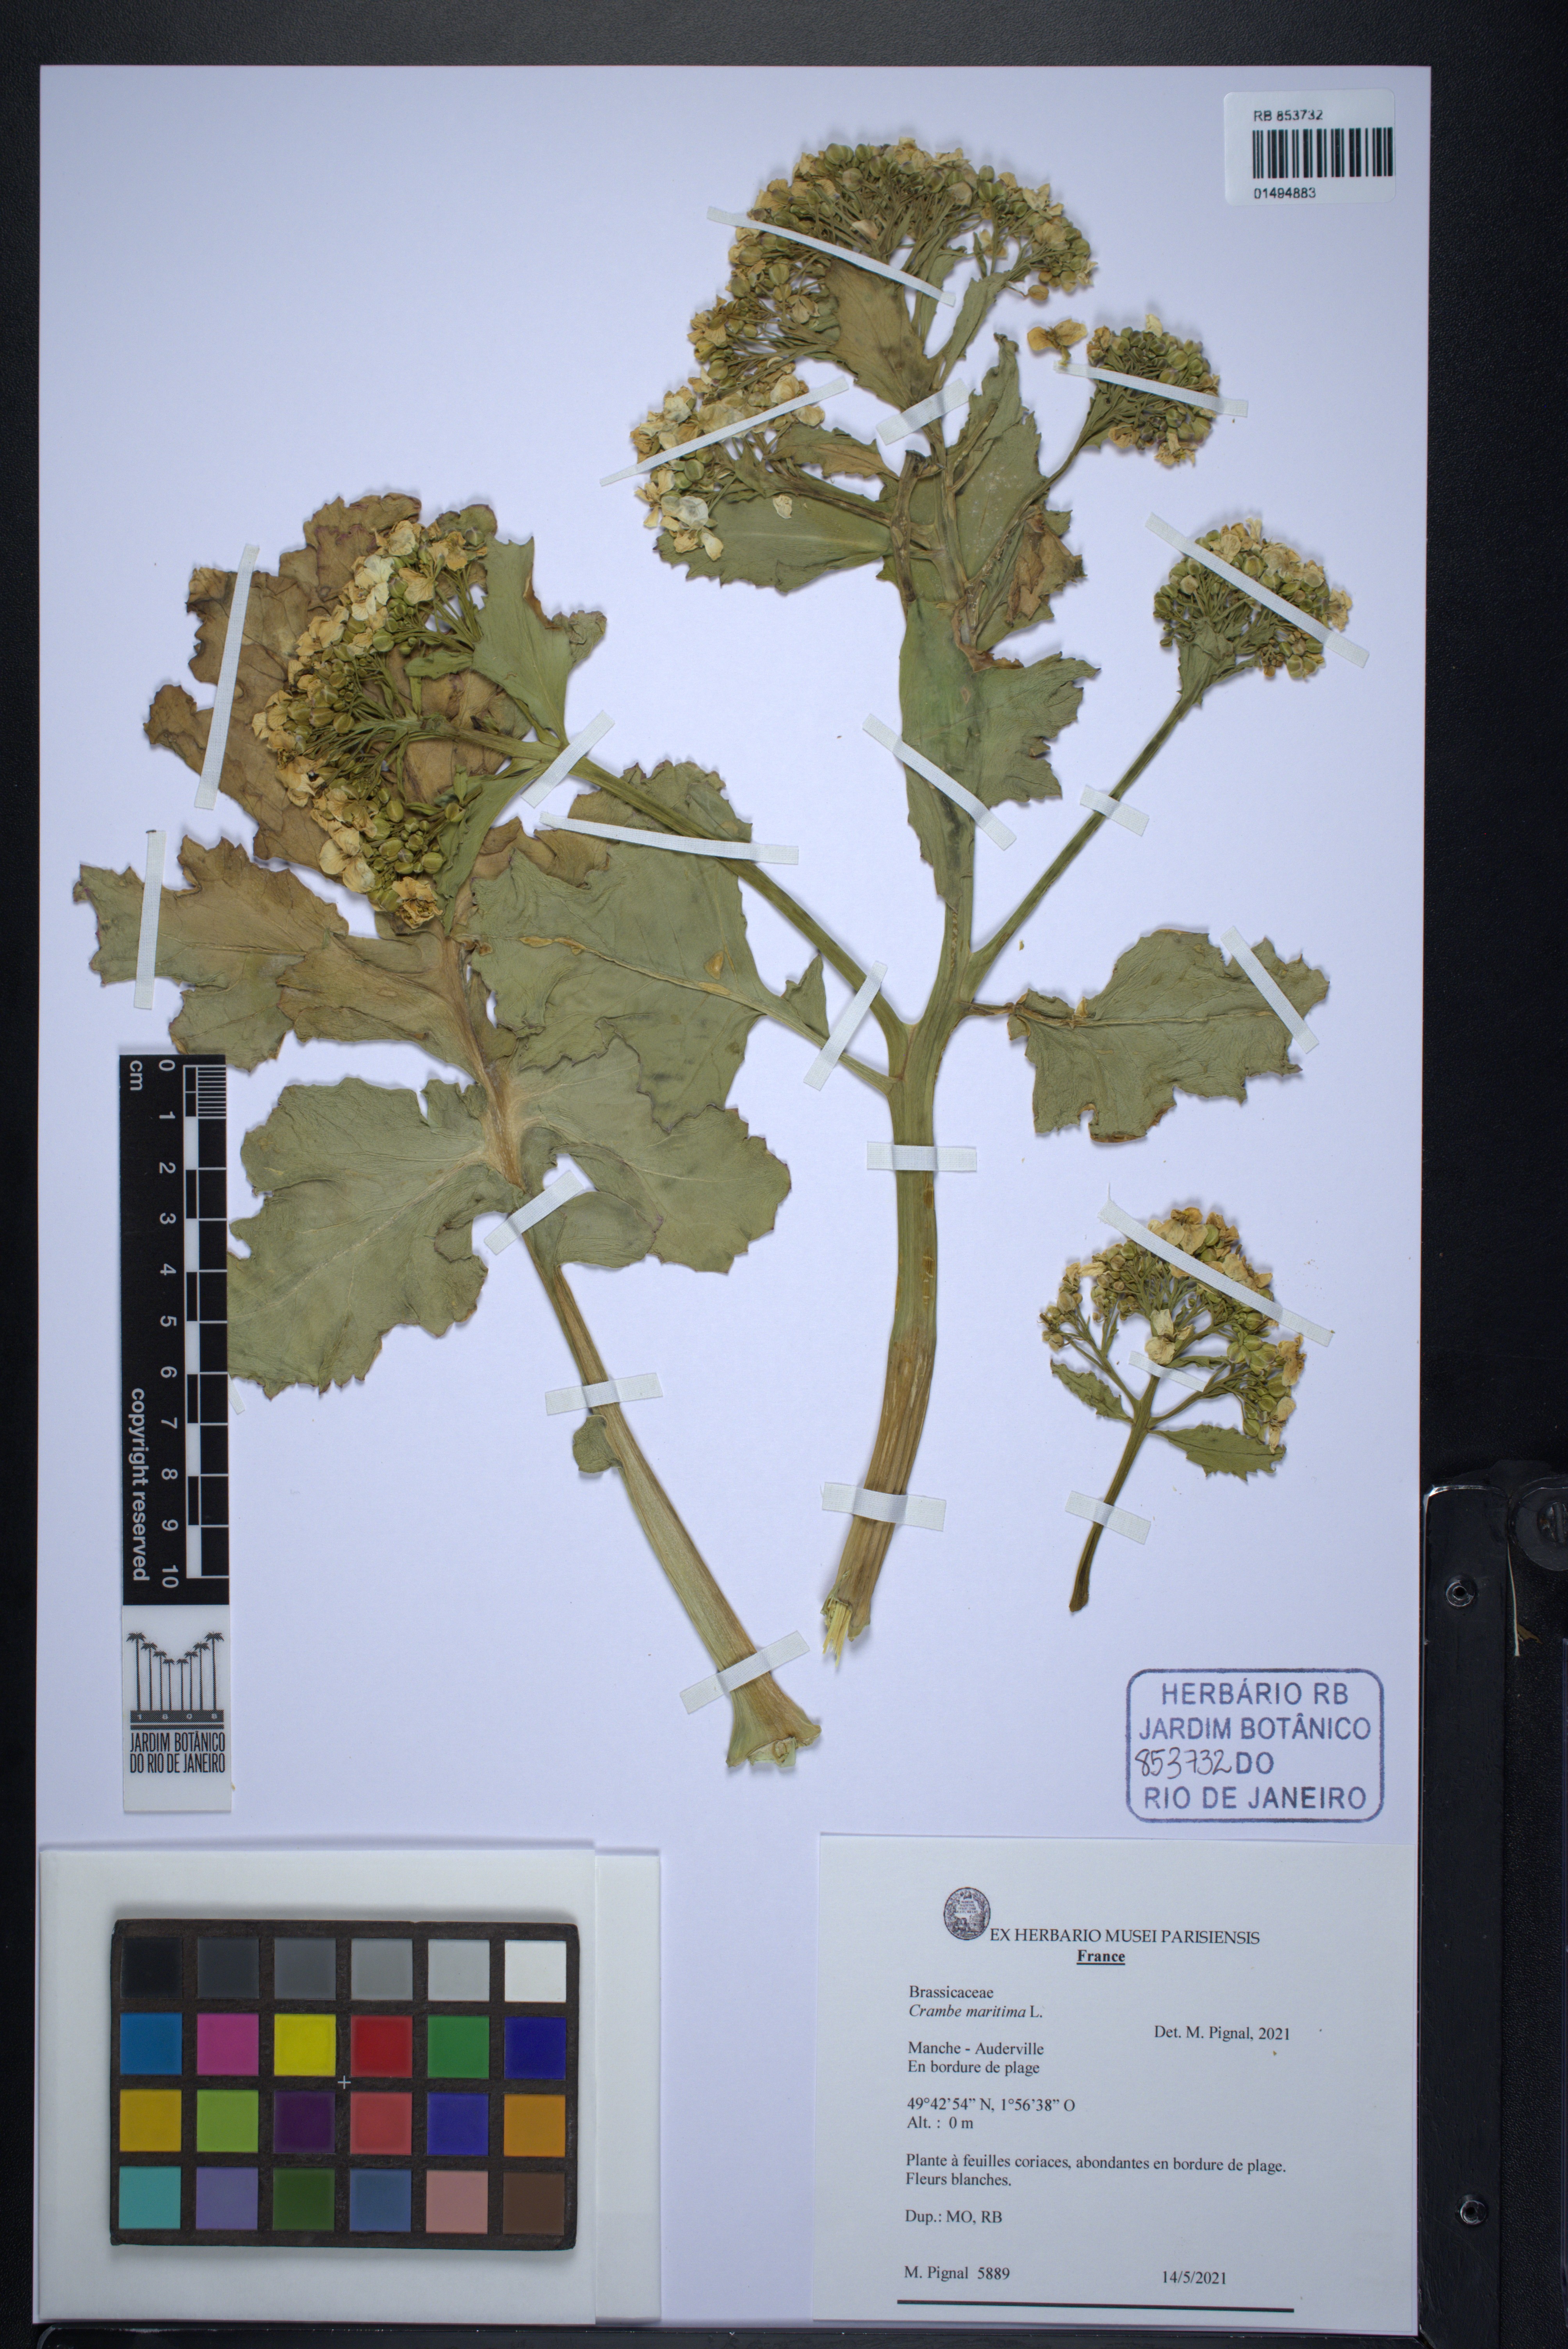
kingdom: Plantae
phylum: Tracheophyta
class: Magnoliopsida
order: Brassicales
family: Brassicaceae
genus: Crambe
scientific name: Crambe maritima
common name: Sea-kale
